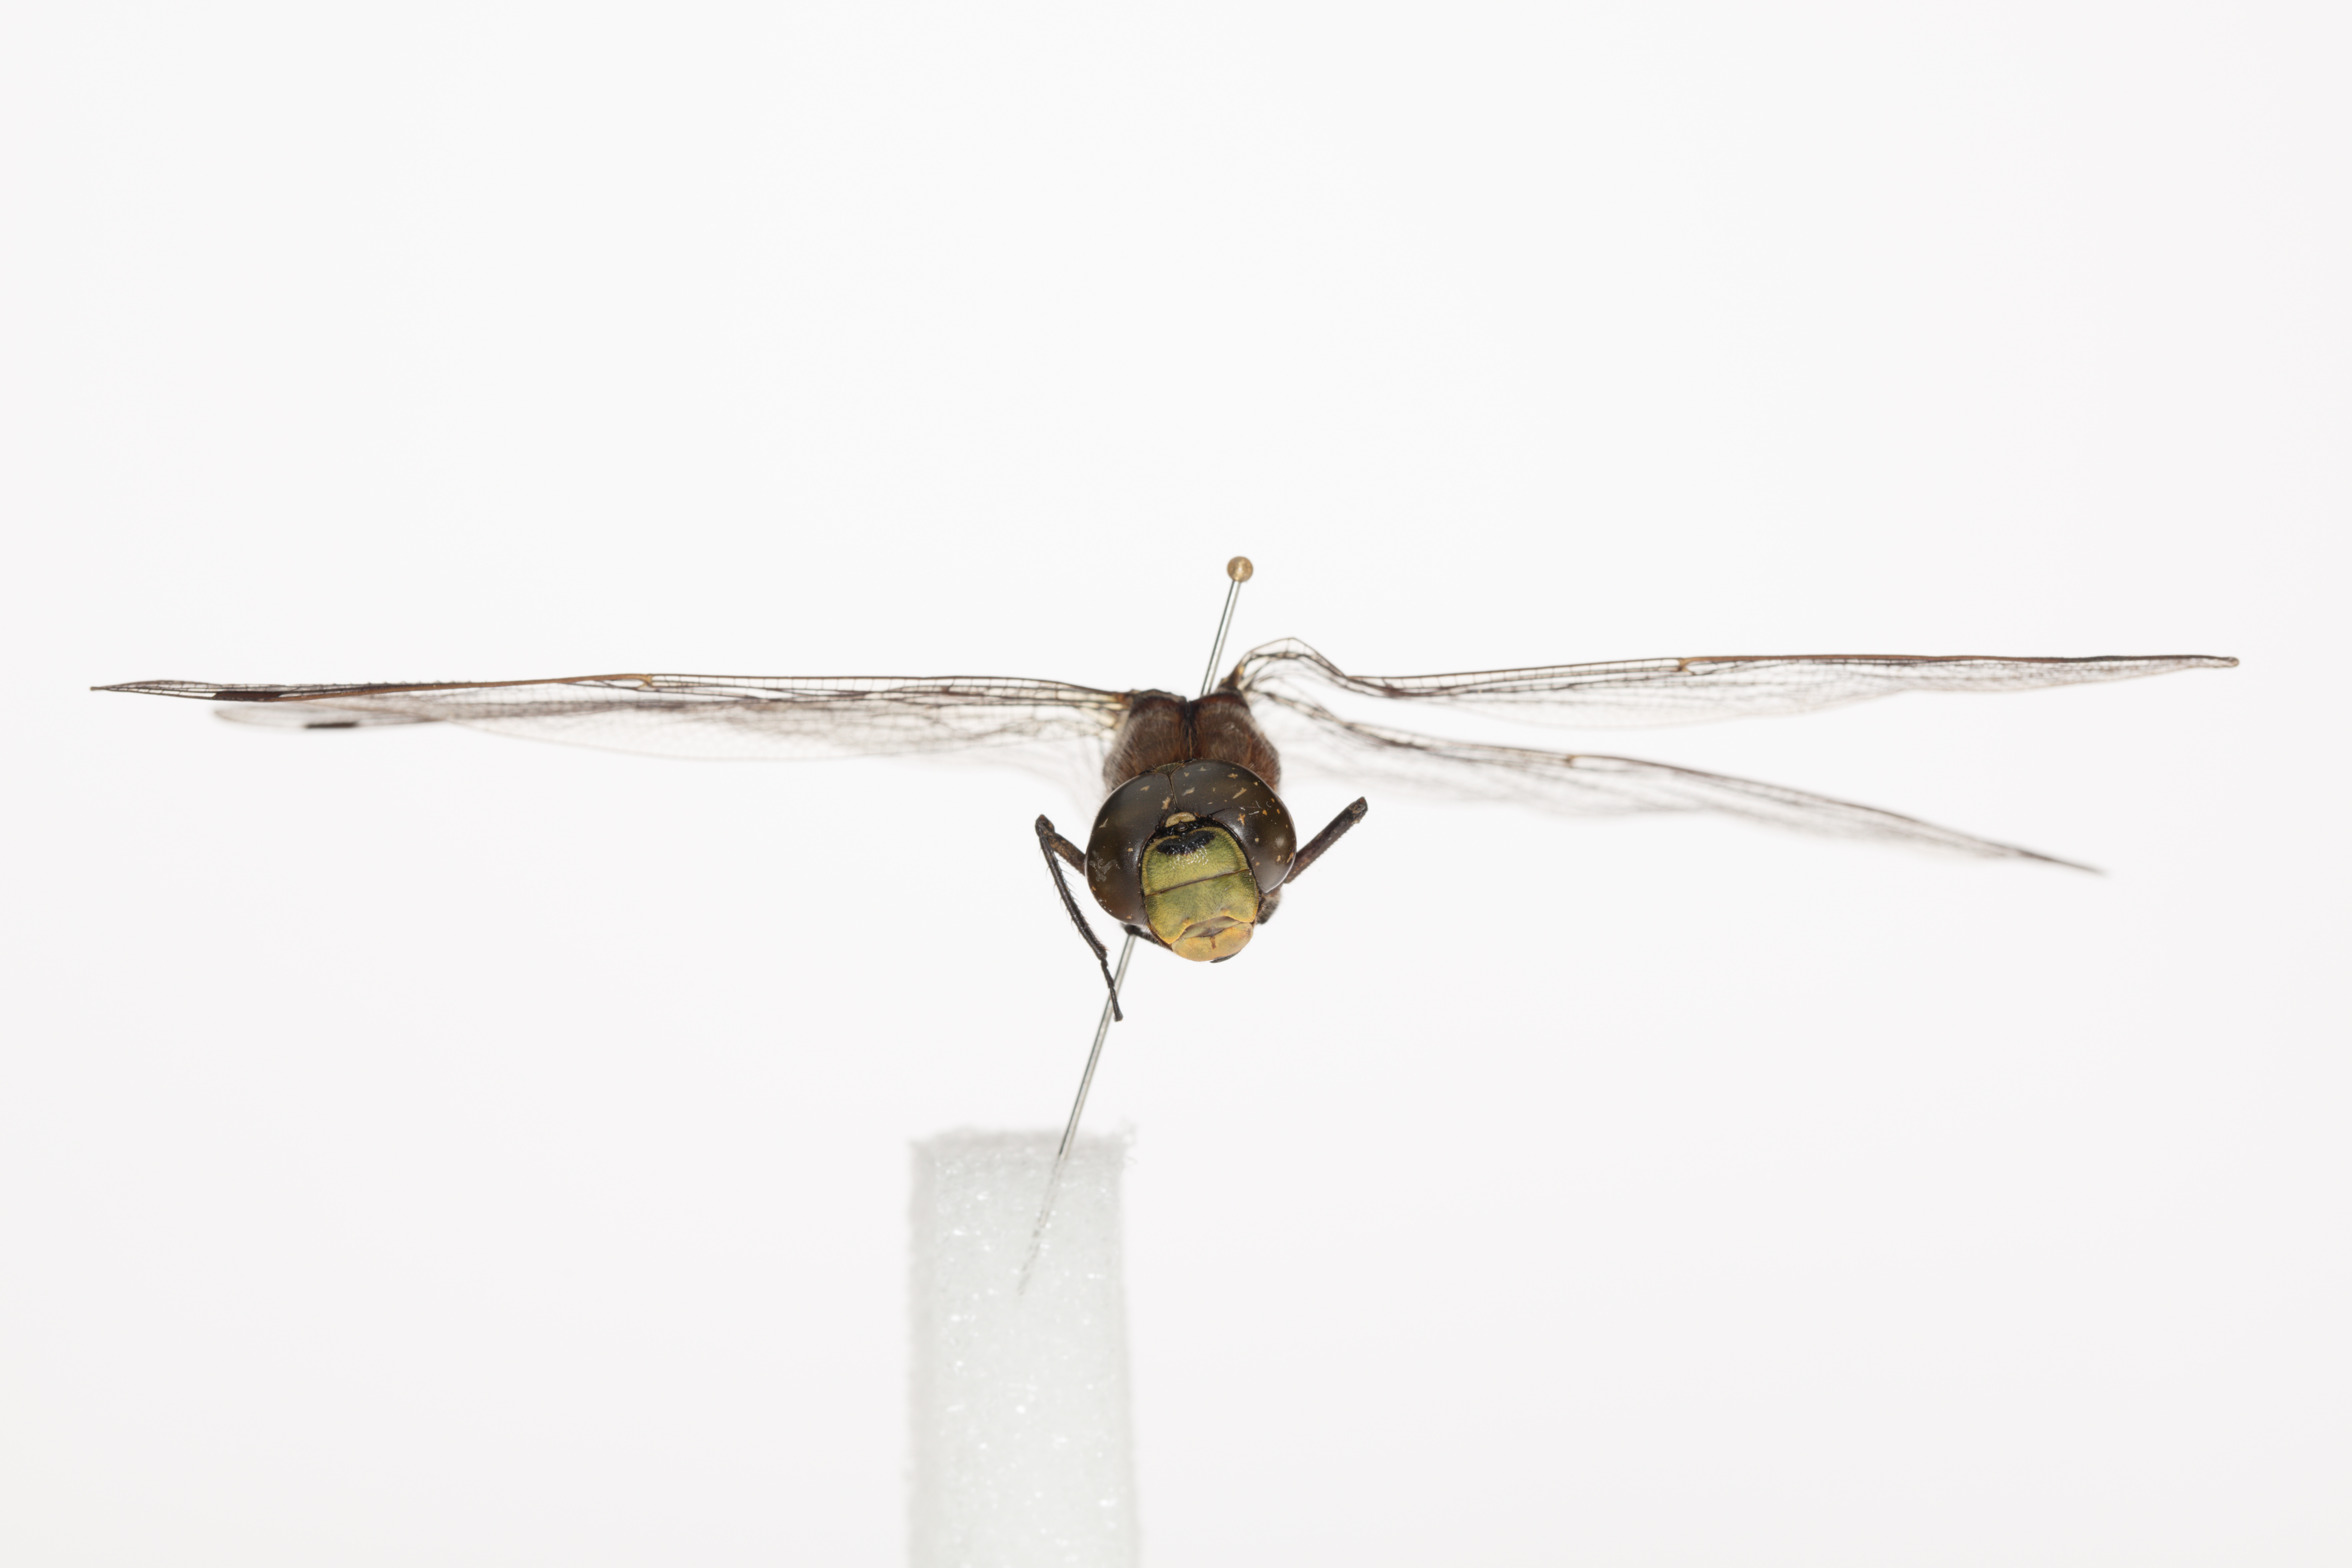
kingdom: Animalia
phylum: Arthropoda
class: Insecta
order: Odonata
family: Aeshnidae
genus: Aeshna
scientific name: Aeshna cyanea
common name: Southern hawker
